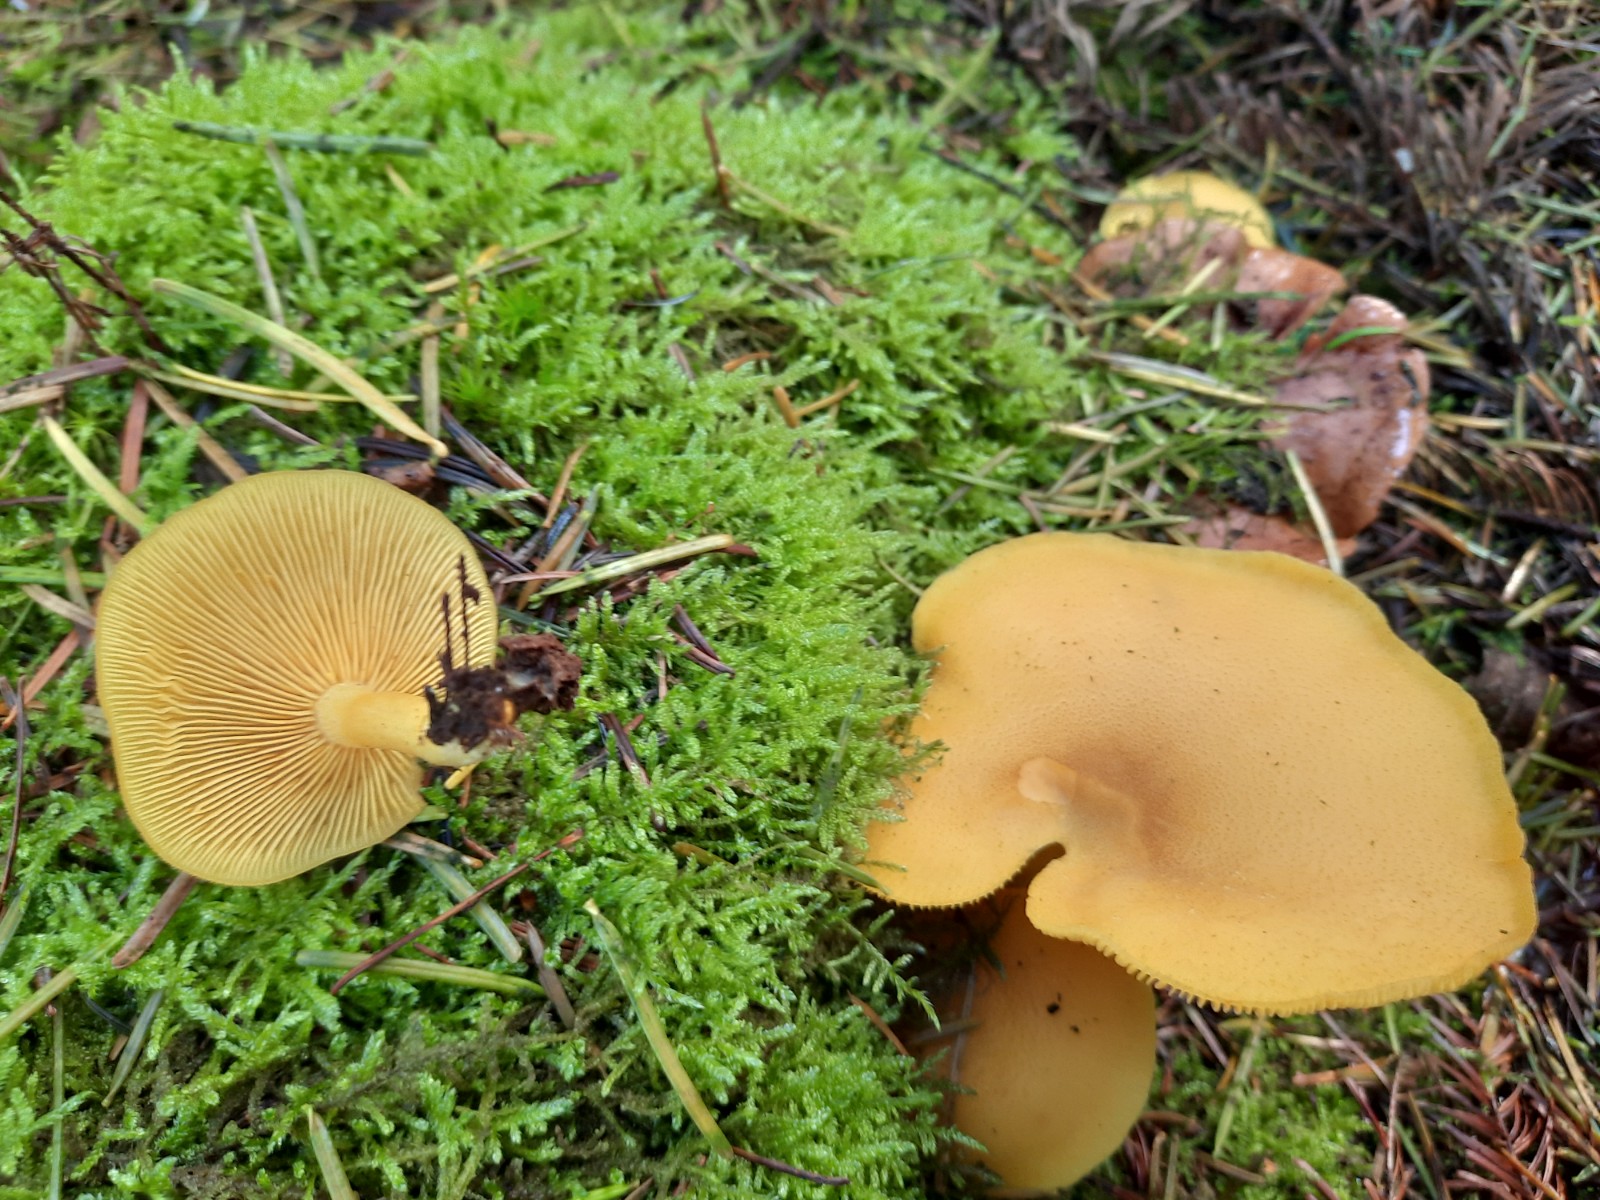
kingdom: Fungi
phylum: Basidiomycota
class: Agaricomycetes
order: Agaricales
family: Tricholomataceae
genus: Tricholomopsis
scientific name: Tricholomopsis decora
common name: sortskællet væbnerhat
